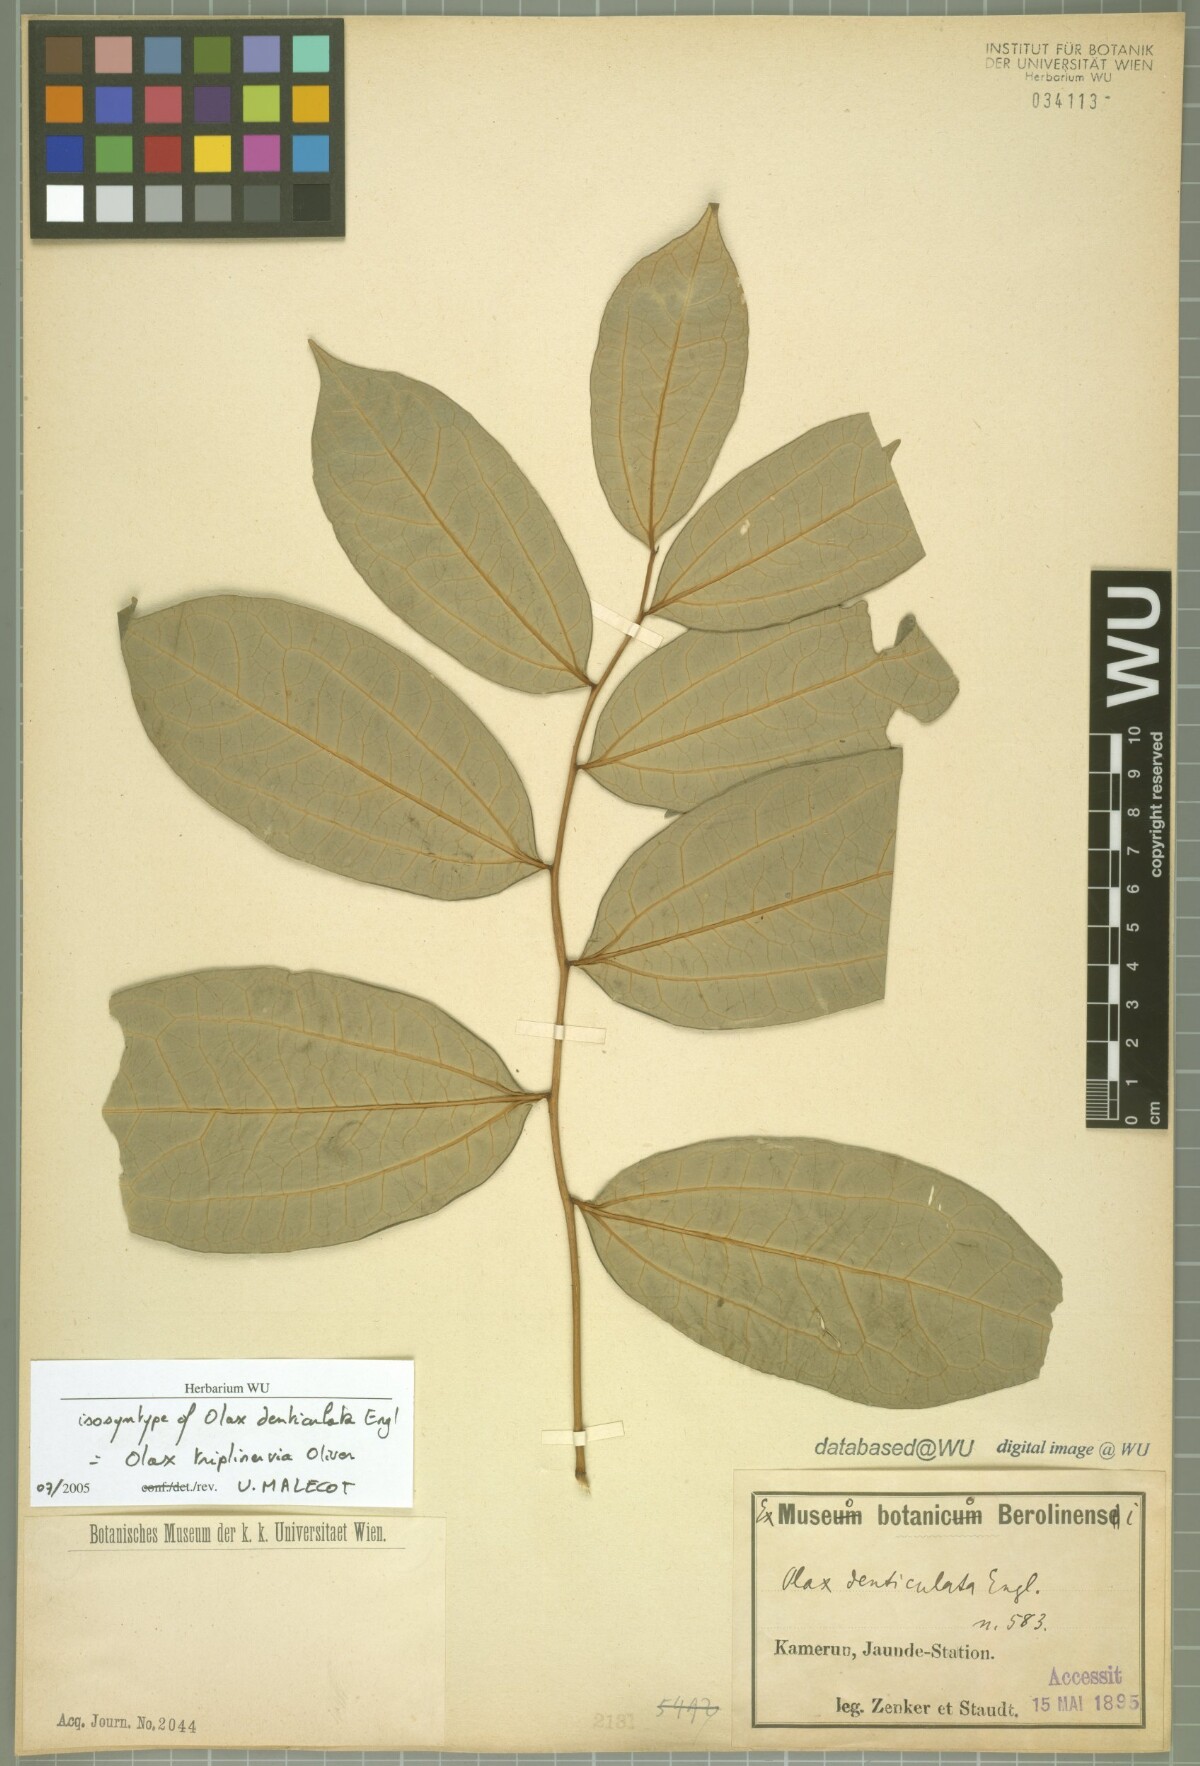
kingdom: Plantae
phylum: Tracheophyta
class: Magnoliopsida
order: Santalales
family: Olacaceae
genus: Olax
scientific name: Olax triplinervia
